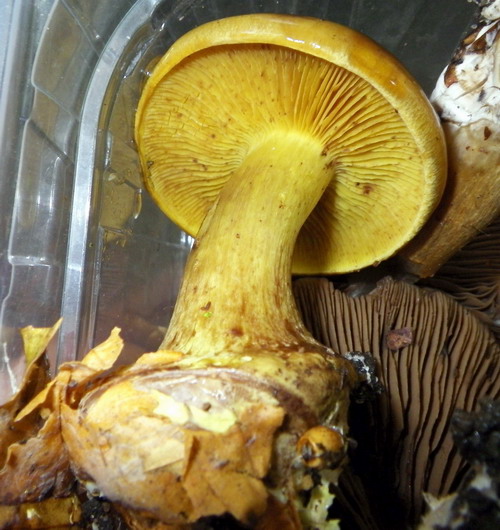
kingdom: Fungi
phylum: Basidiomycota
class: Agaricomycetes
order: Agaricales
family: Cortinariaceae
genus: Calonarius
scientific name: Calonarius citrinus
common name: citrongul slørhat
